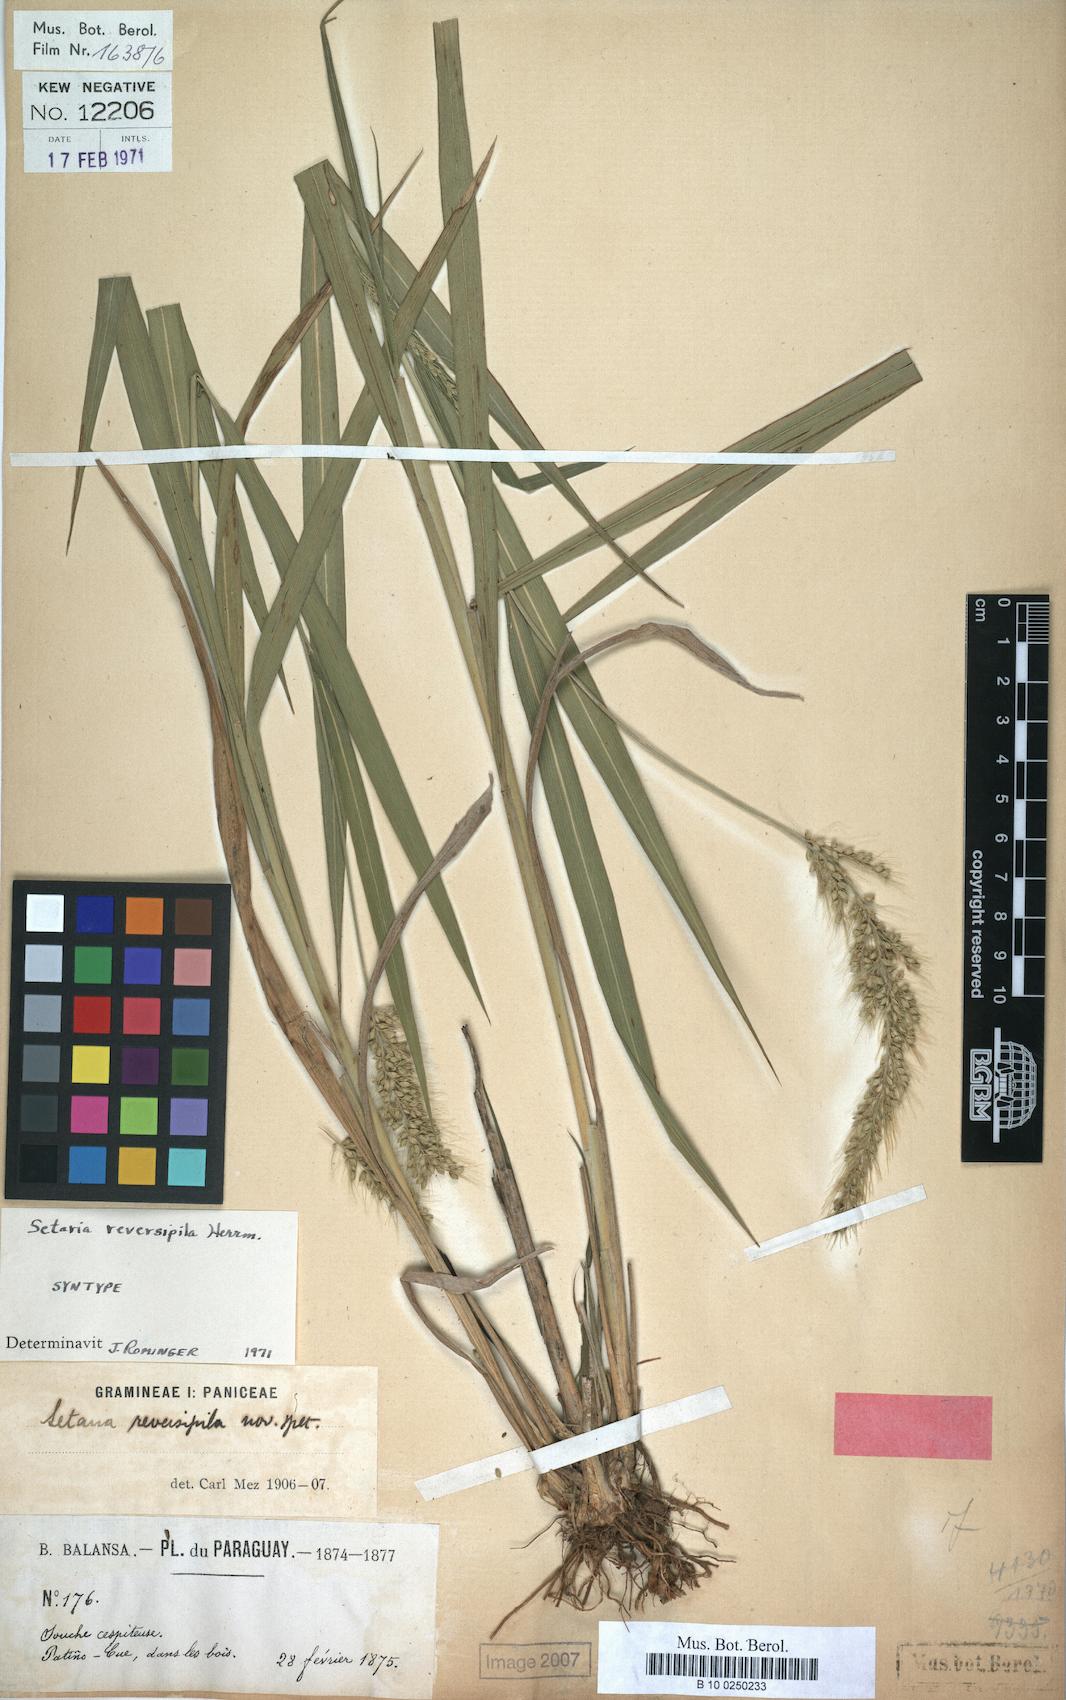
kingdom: Plantae
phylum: Tracheophyta
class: Liliopsida
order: Poales
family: Poaceae
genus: Setaria
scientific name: Setaria vulpiseta
